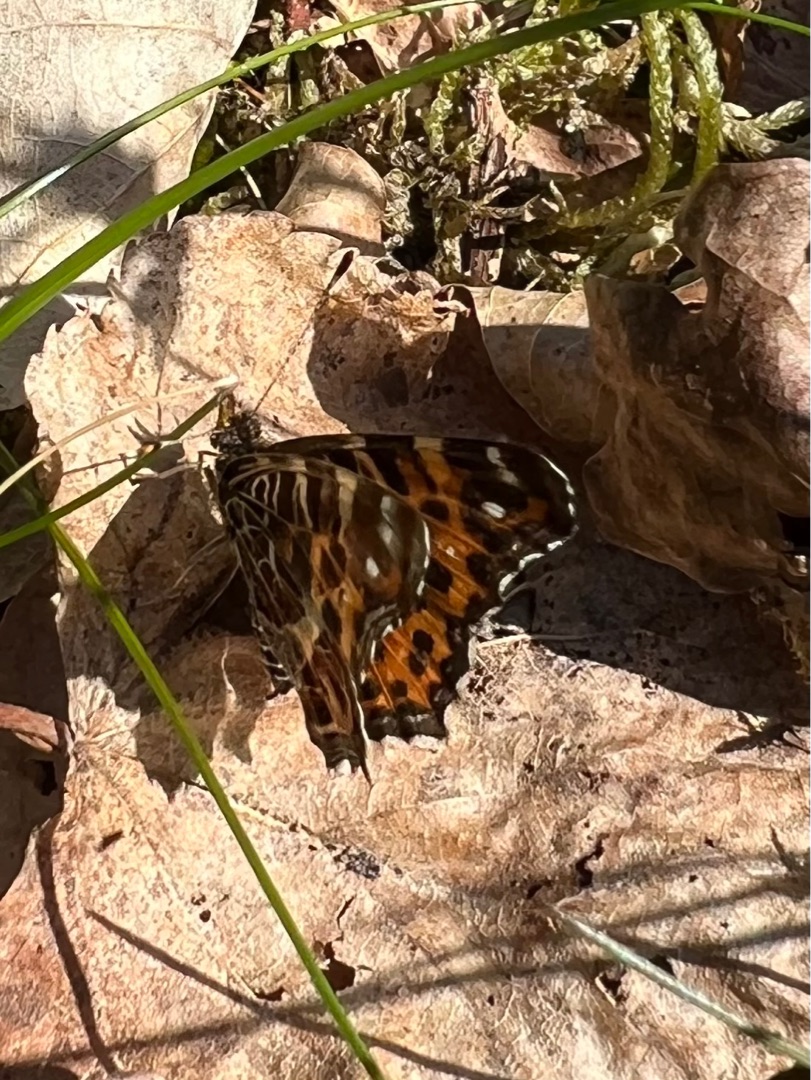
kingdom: Animalia
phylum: Arthropoda
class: Insecta
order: Lepidoptera
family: Nymphalidae
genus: Araschnia
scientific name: Araschnia levana
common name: Nældesommerfugl
